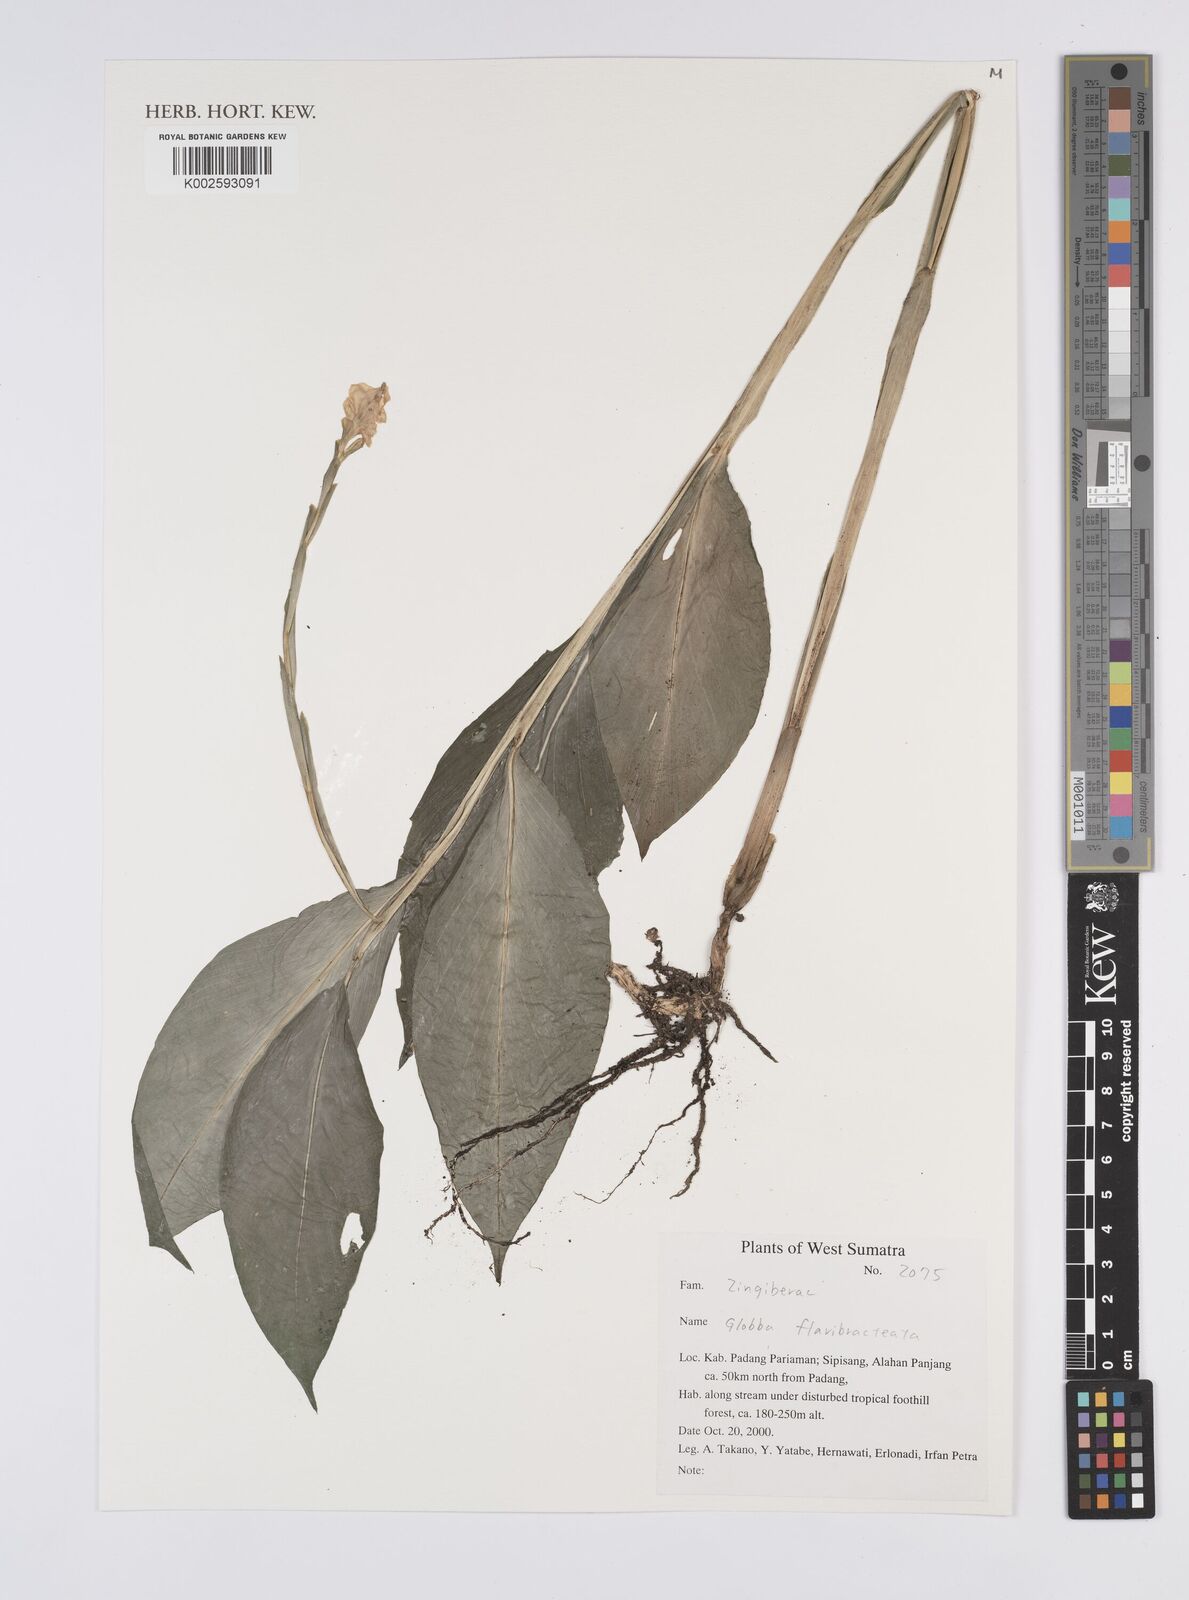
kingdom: Plantae
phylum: Tracheophyta
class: Liliopsida
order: Zingiberales
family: Zingiberaceae
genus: Globba
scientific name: Globba flavibracteata
